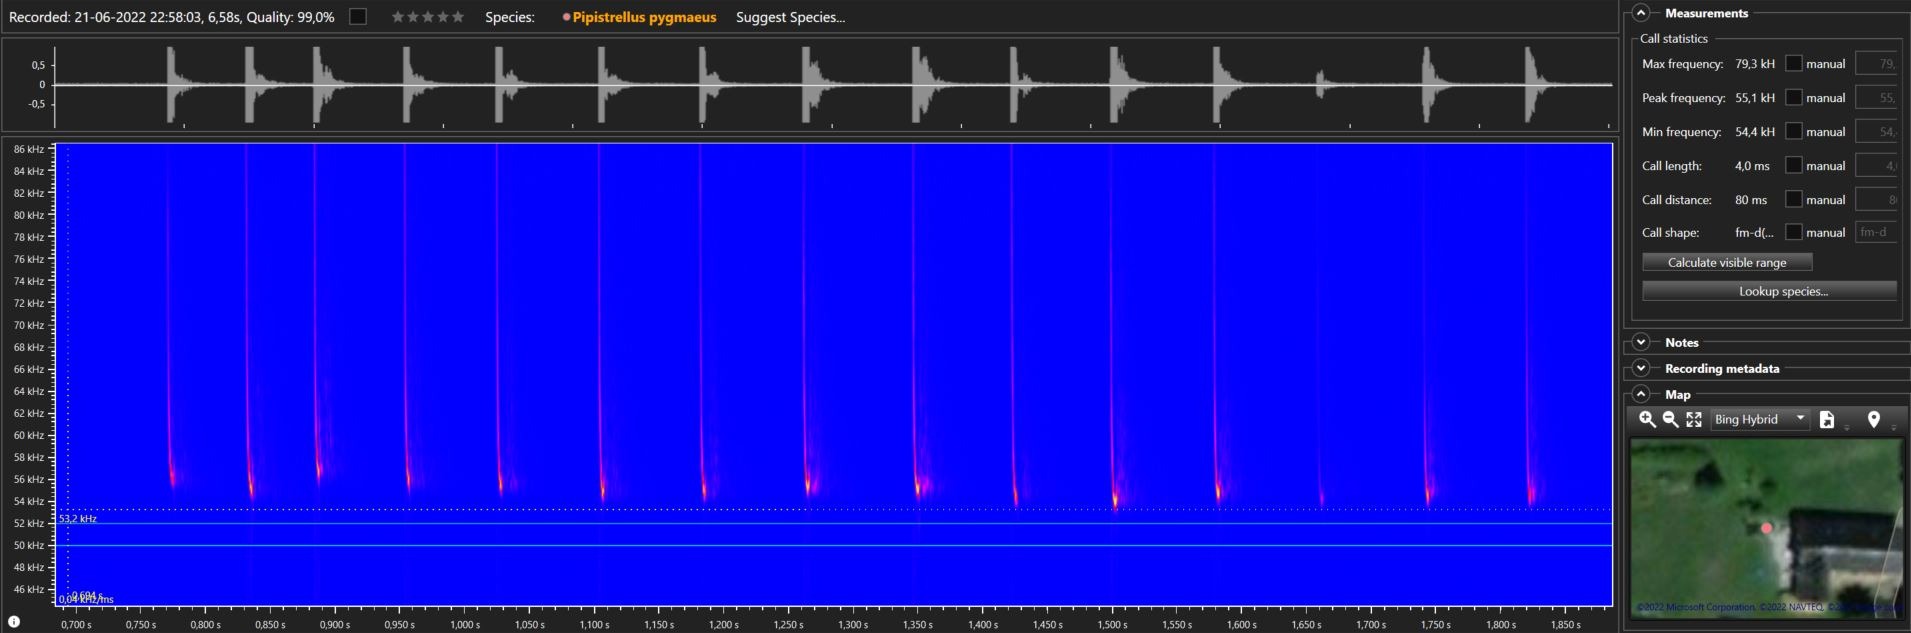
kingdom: Animalia
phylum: Chordata
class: Mammalia
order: Chiroptera
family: Vespertilionidae
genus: Pipistrellus
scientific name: Pipistrellus pygmaeus
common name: Dværgflagermus
